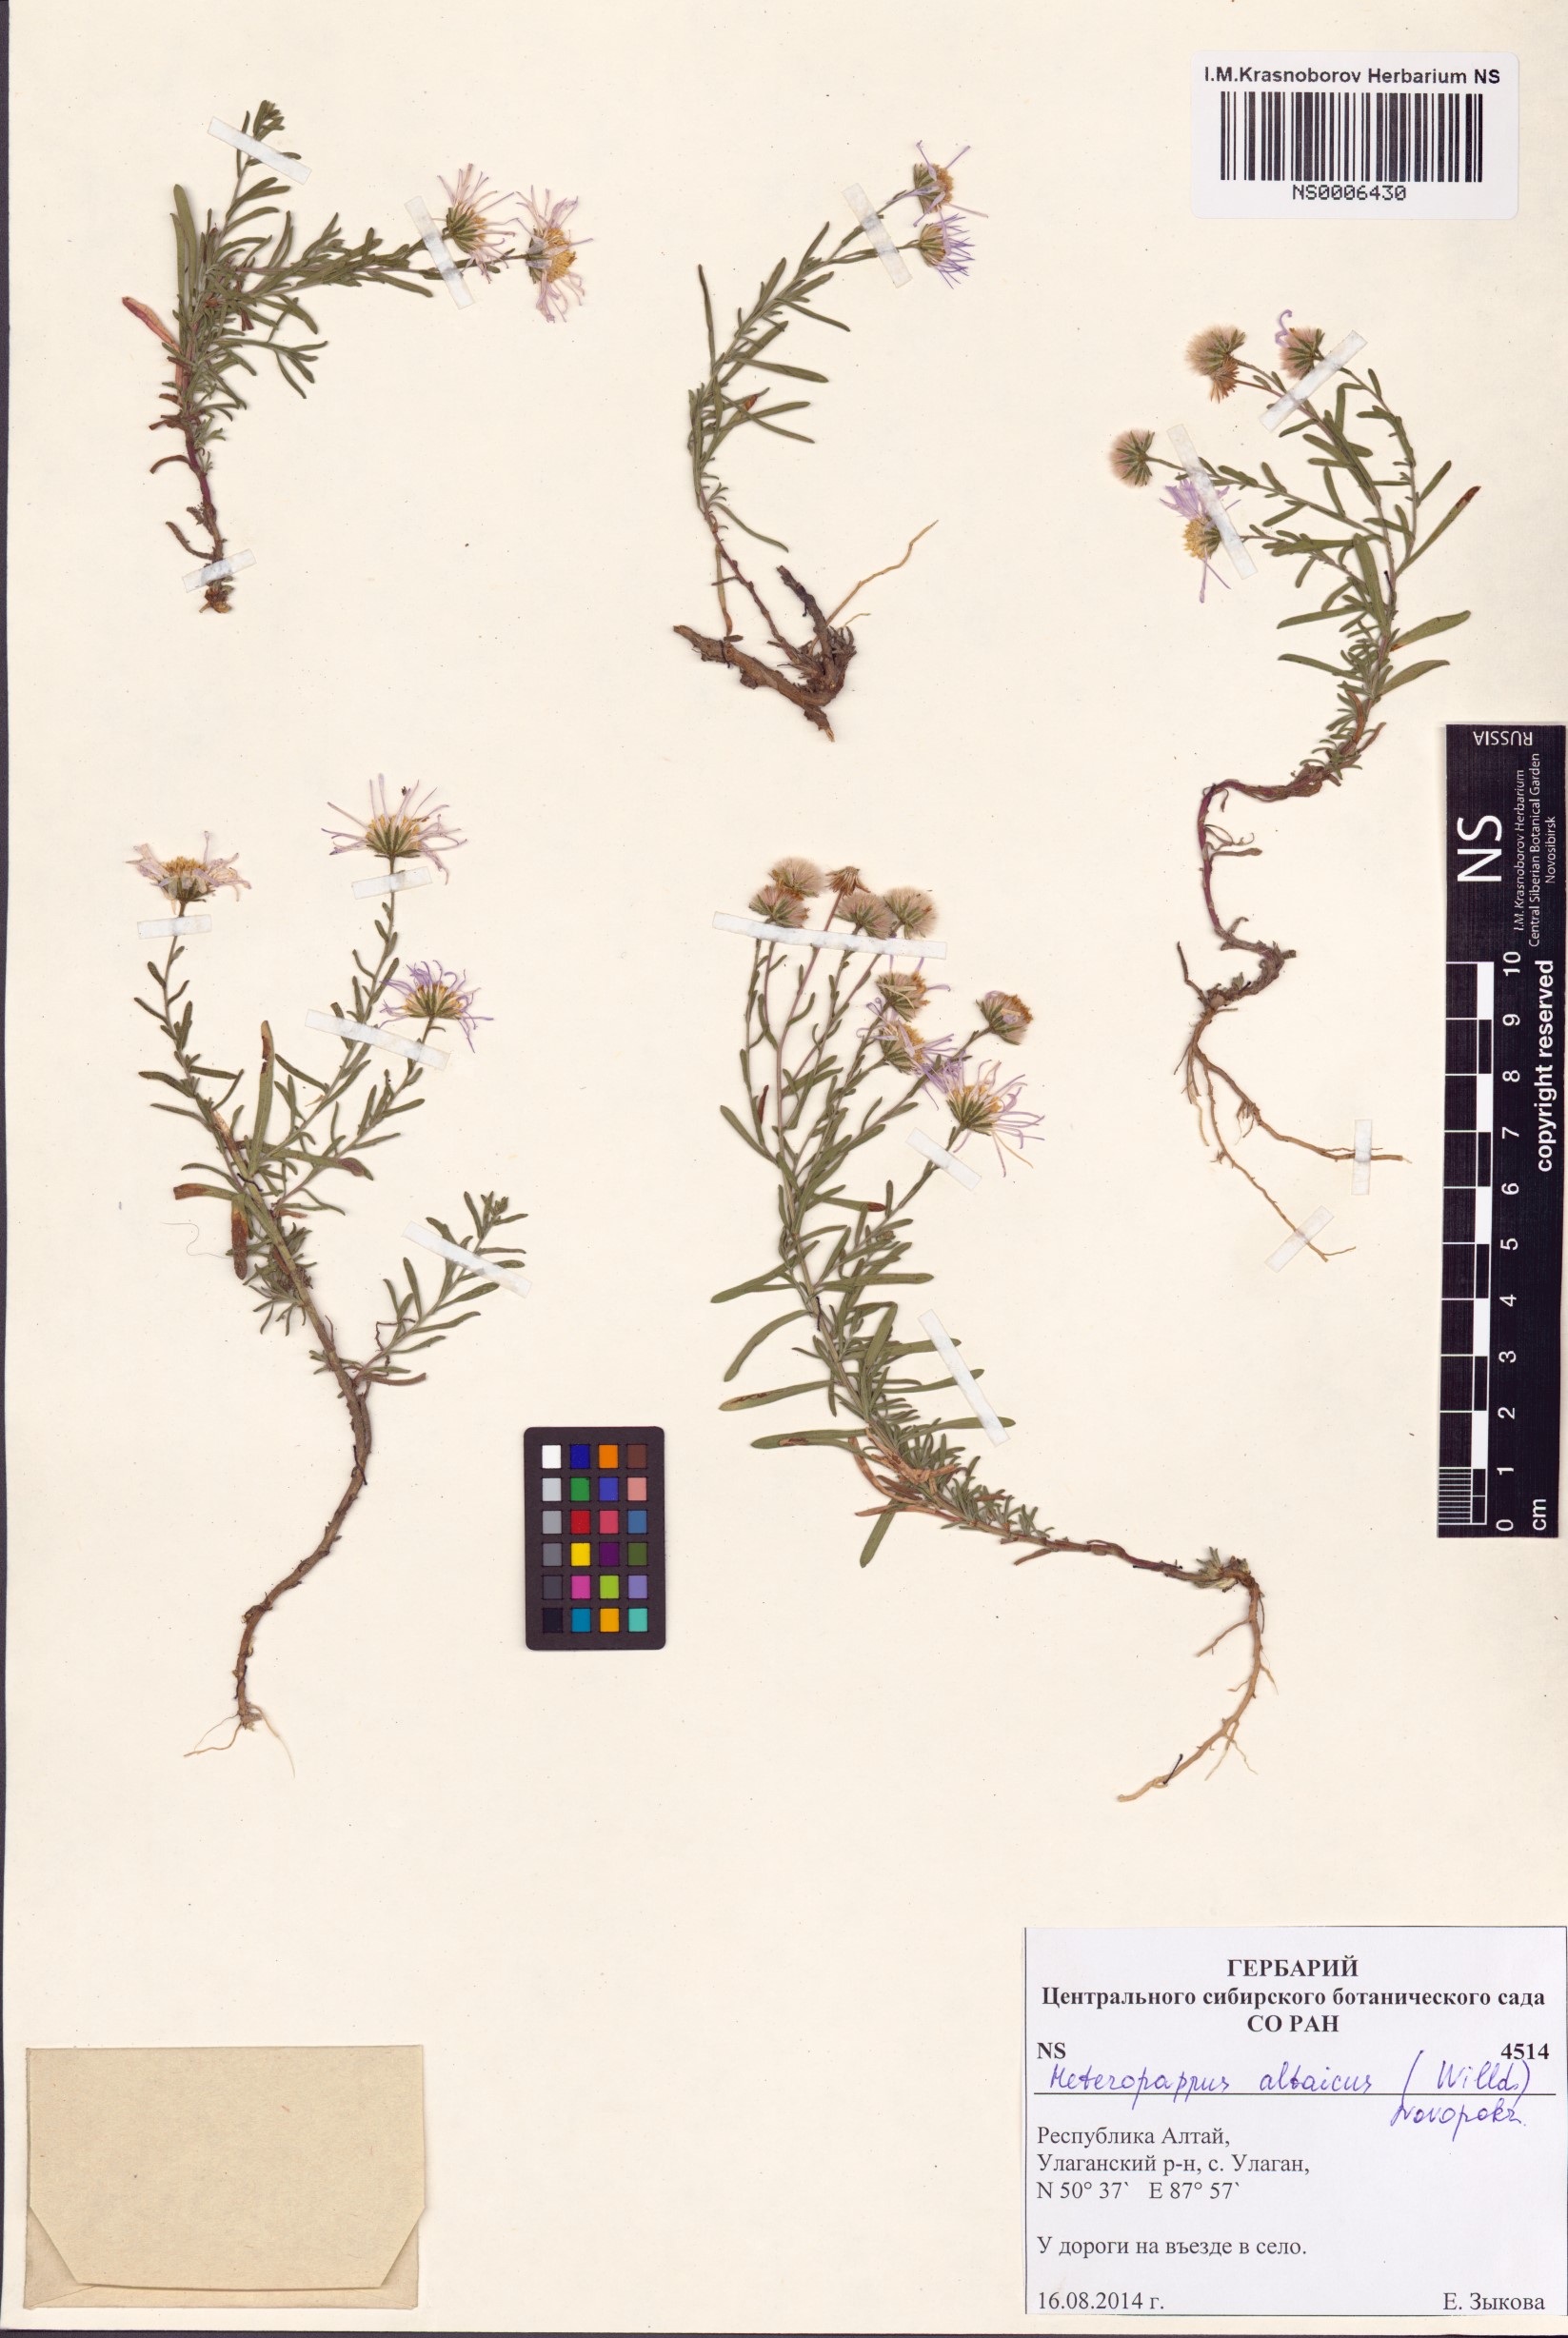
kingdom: Plantae
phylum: Tracheophyta
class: Magnoliopsida
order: Asterales
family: Asteraceae
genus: Heteropappus
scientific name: Heteropappus altaicus
